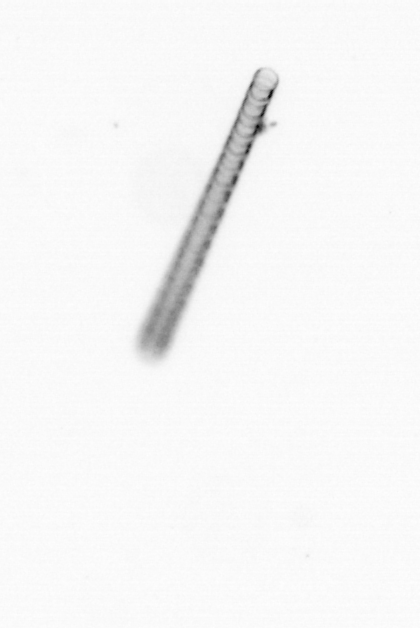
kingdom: Chromista
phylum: Ochrophyta
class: Bacillariophyceae
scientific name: Bacillariophyceae
